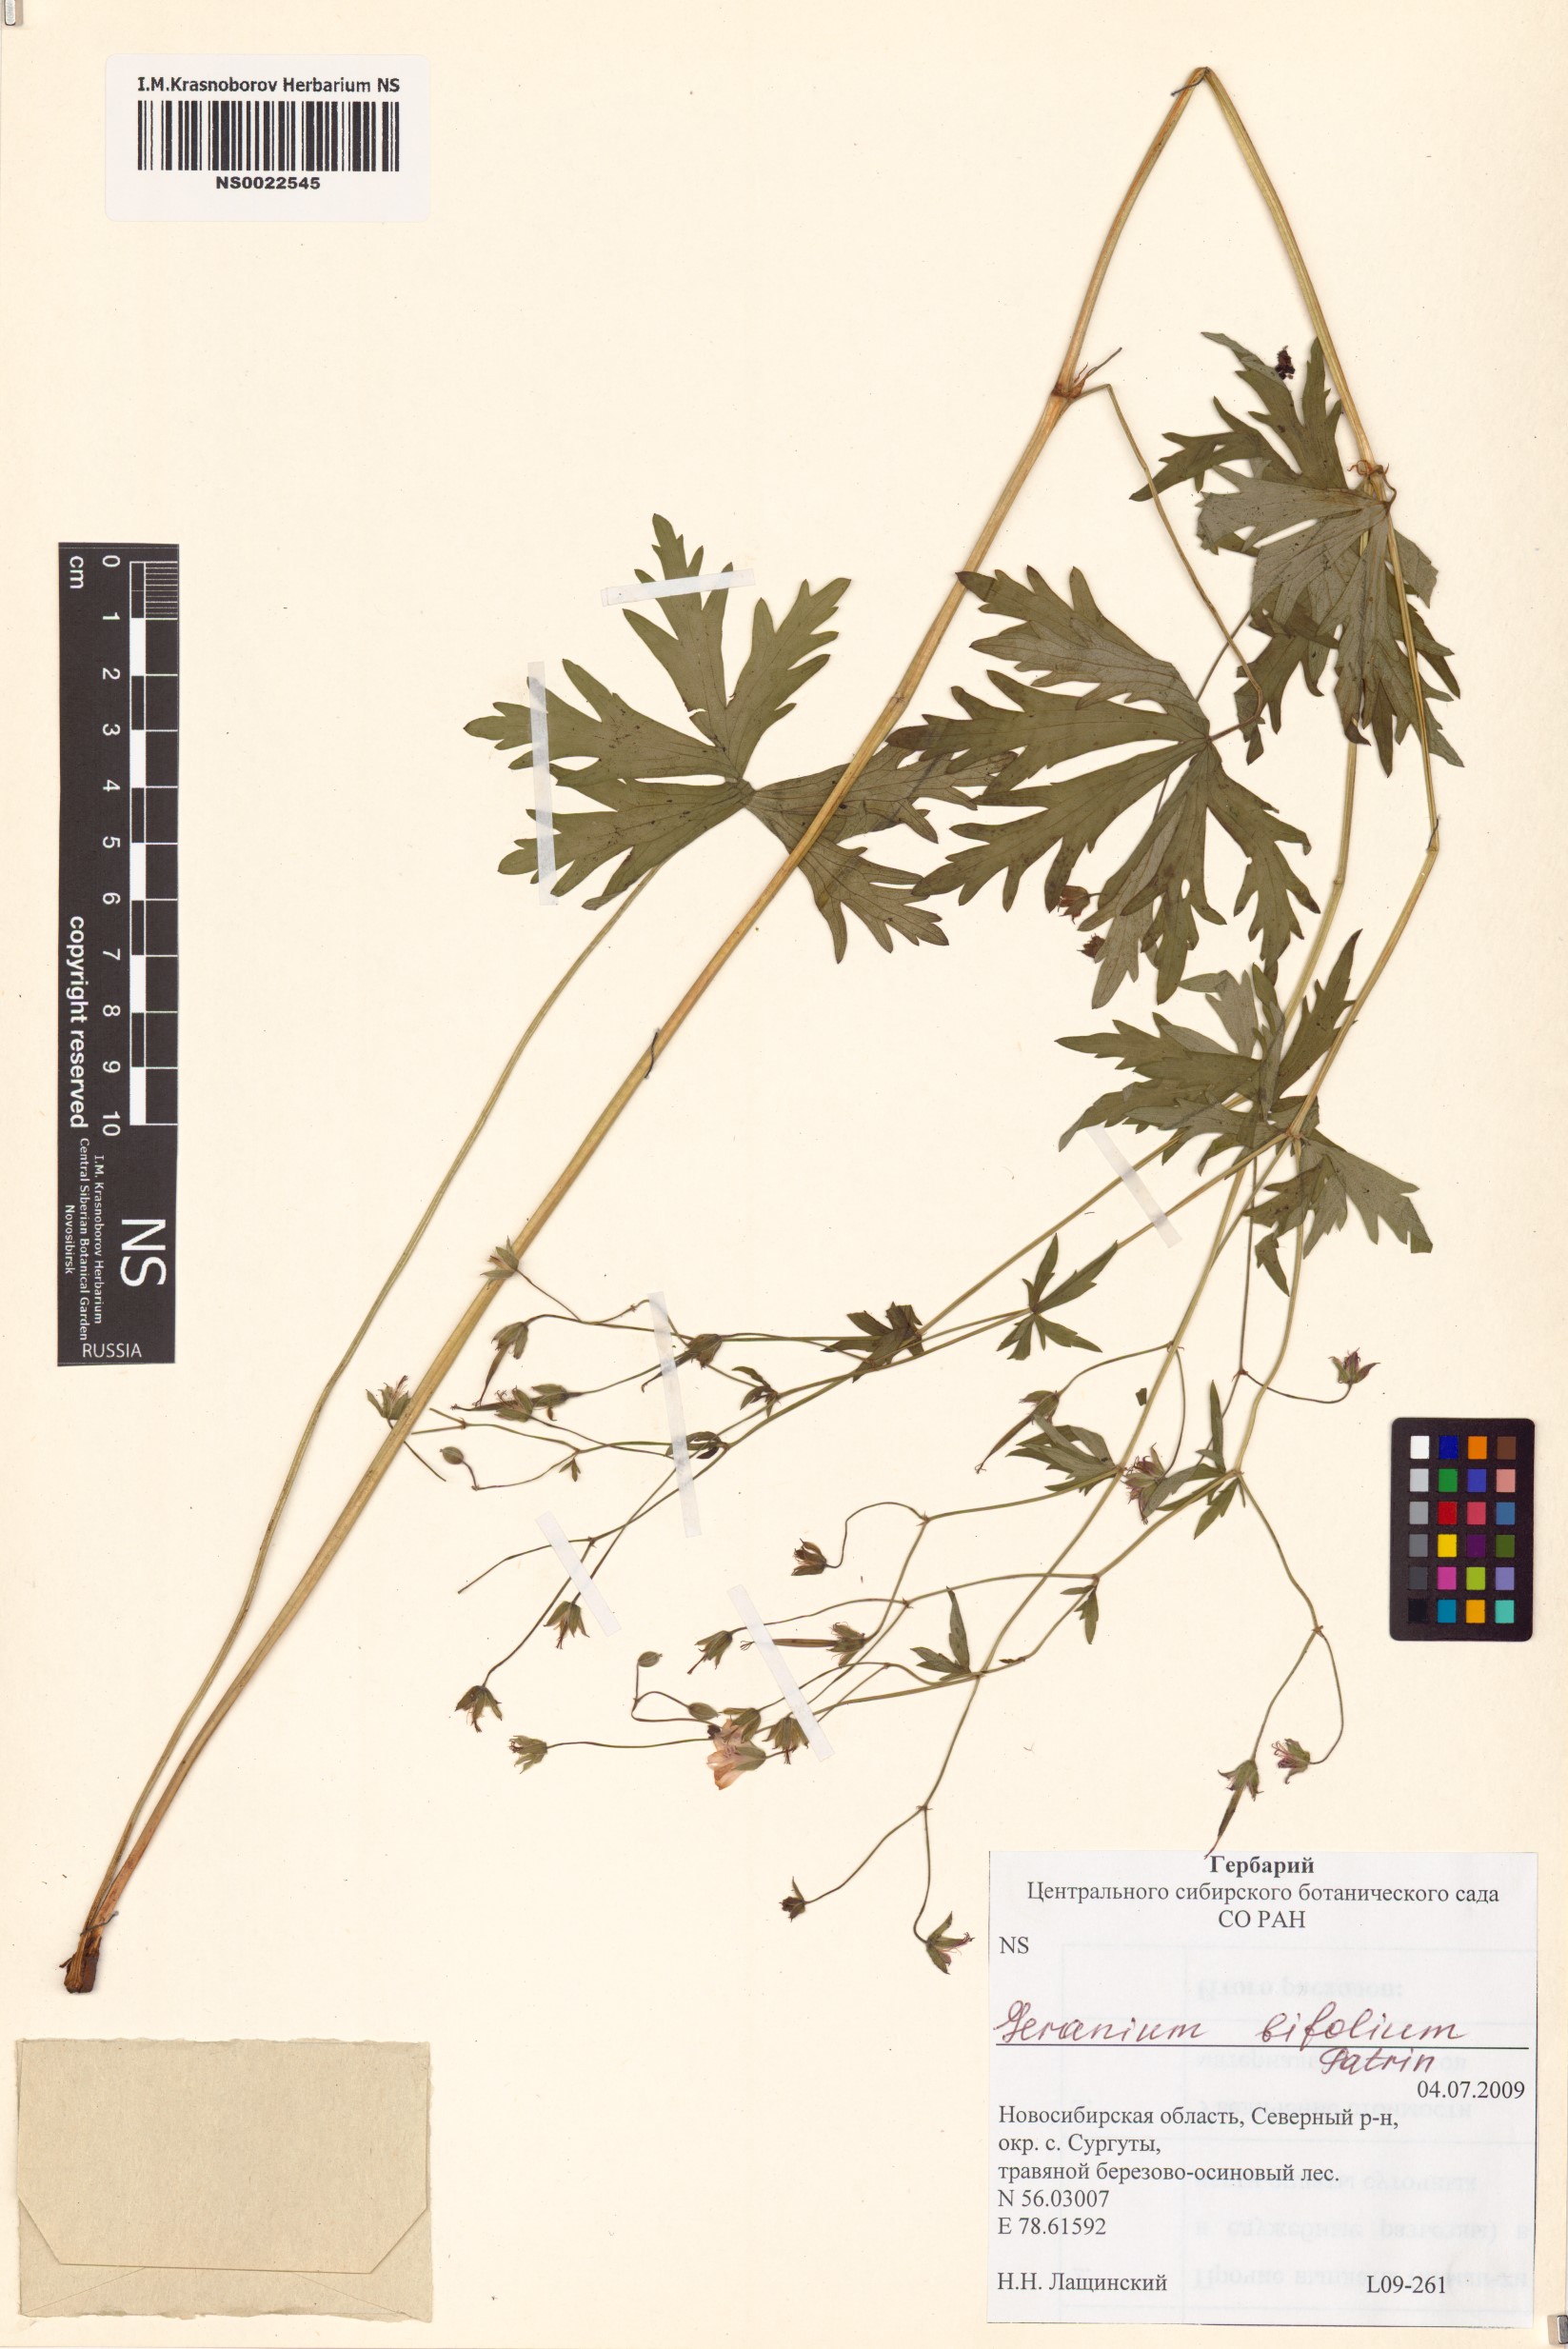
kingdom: Plantae
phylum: Tracheophyta
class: Magnoliopsida
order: Geraniales
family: Geraniaceae
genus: Geranium
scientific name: Geranium pseudosibiricum
